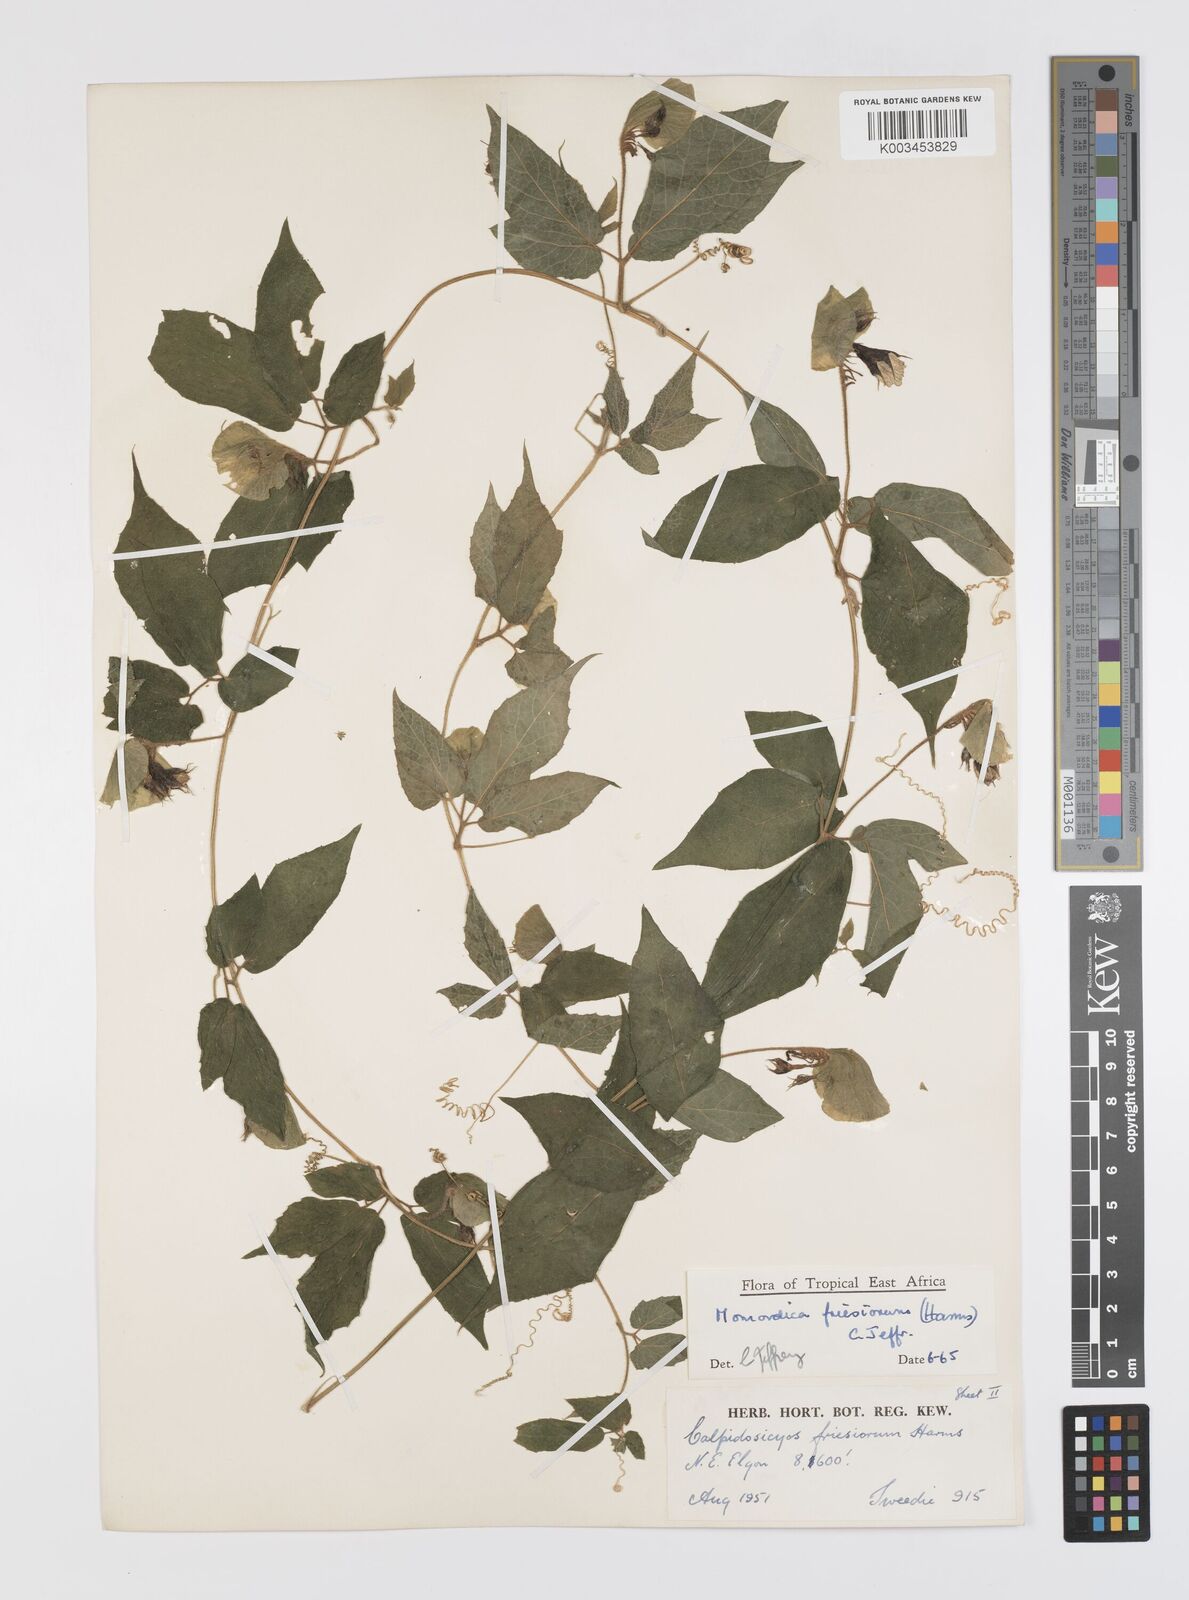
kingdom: Plantae
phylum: Tracheophyta
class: Magnoliopsida
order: Cucurbitales
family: Cucurbitaceae
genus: Momordica
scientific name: Momordica friesiorum
